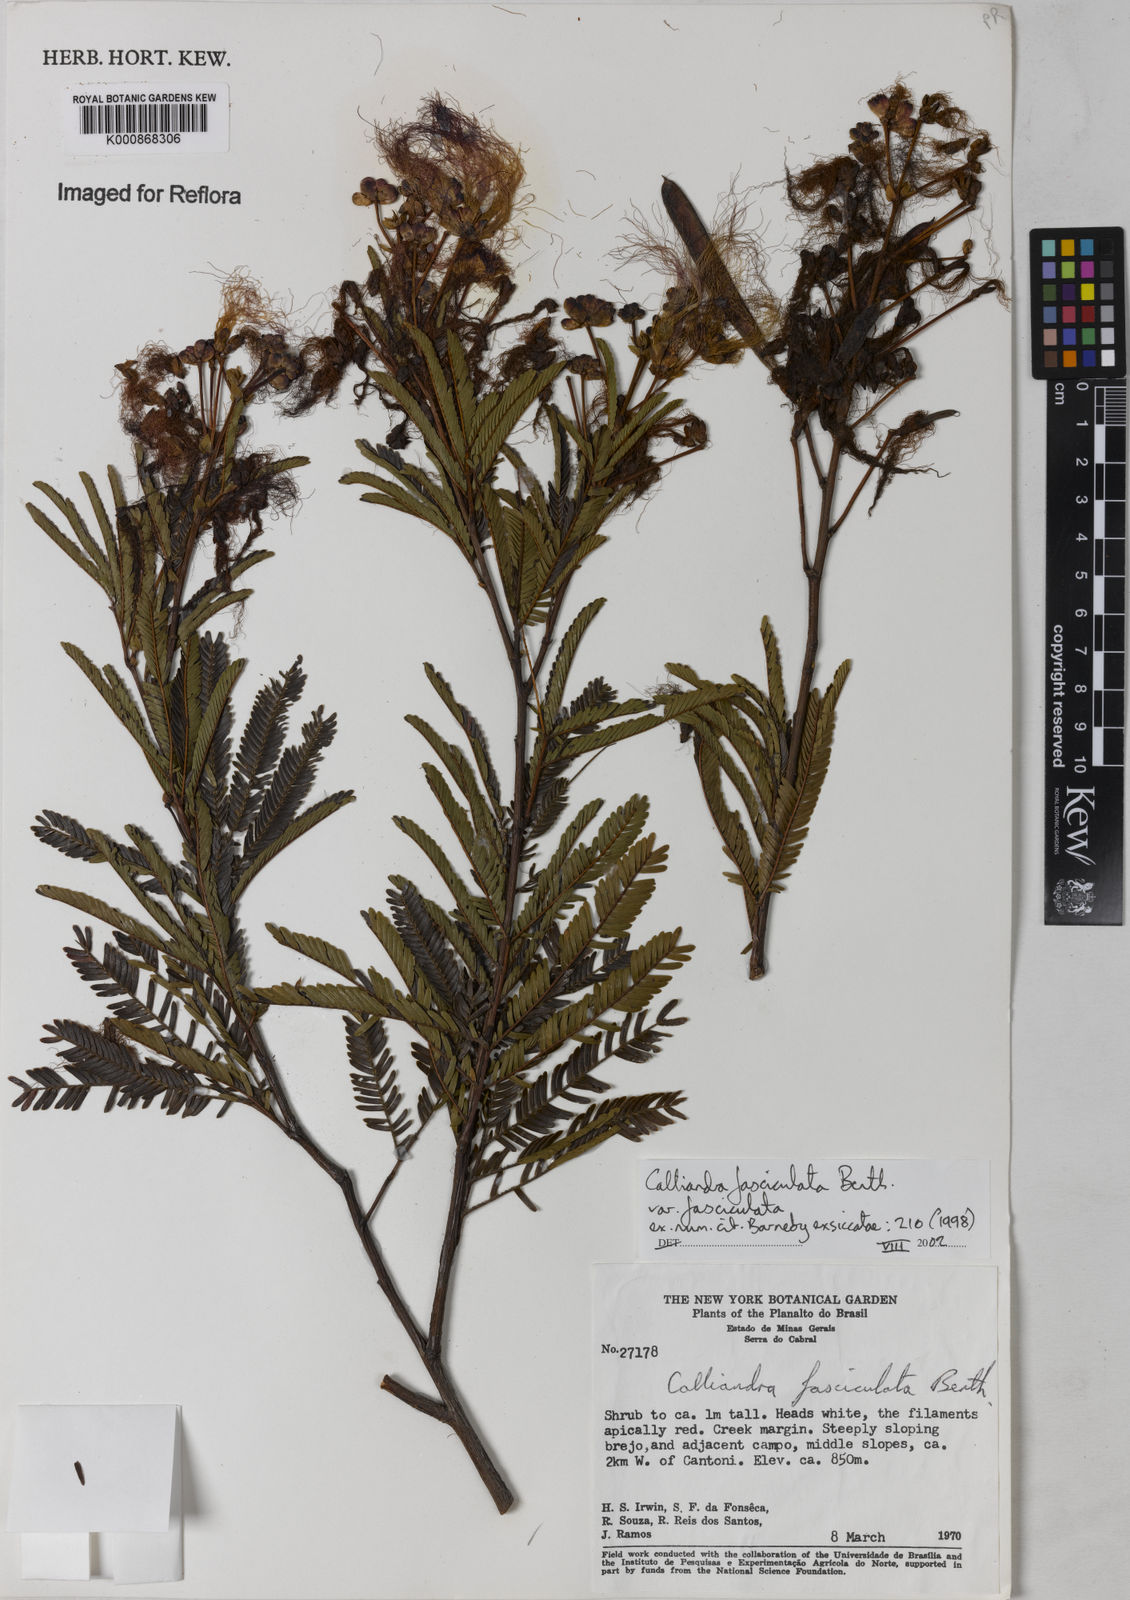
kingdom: Plantae
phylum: Tracheophyta
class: Magnoliopsida
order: Fabales
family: Fabaceae
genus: Calliandra
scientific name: Calliandra fasciculata
